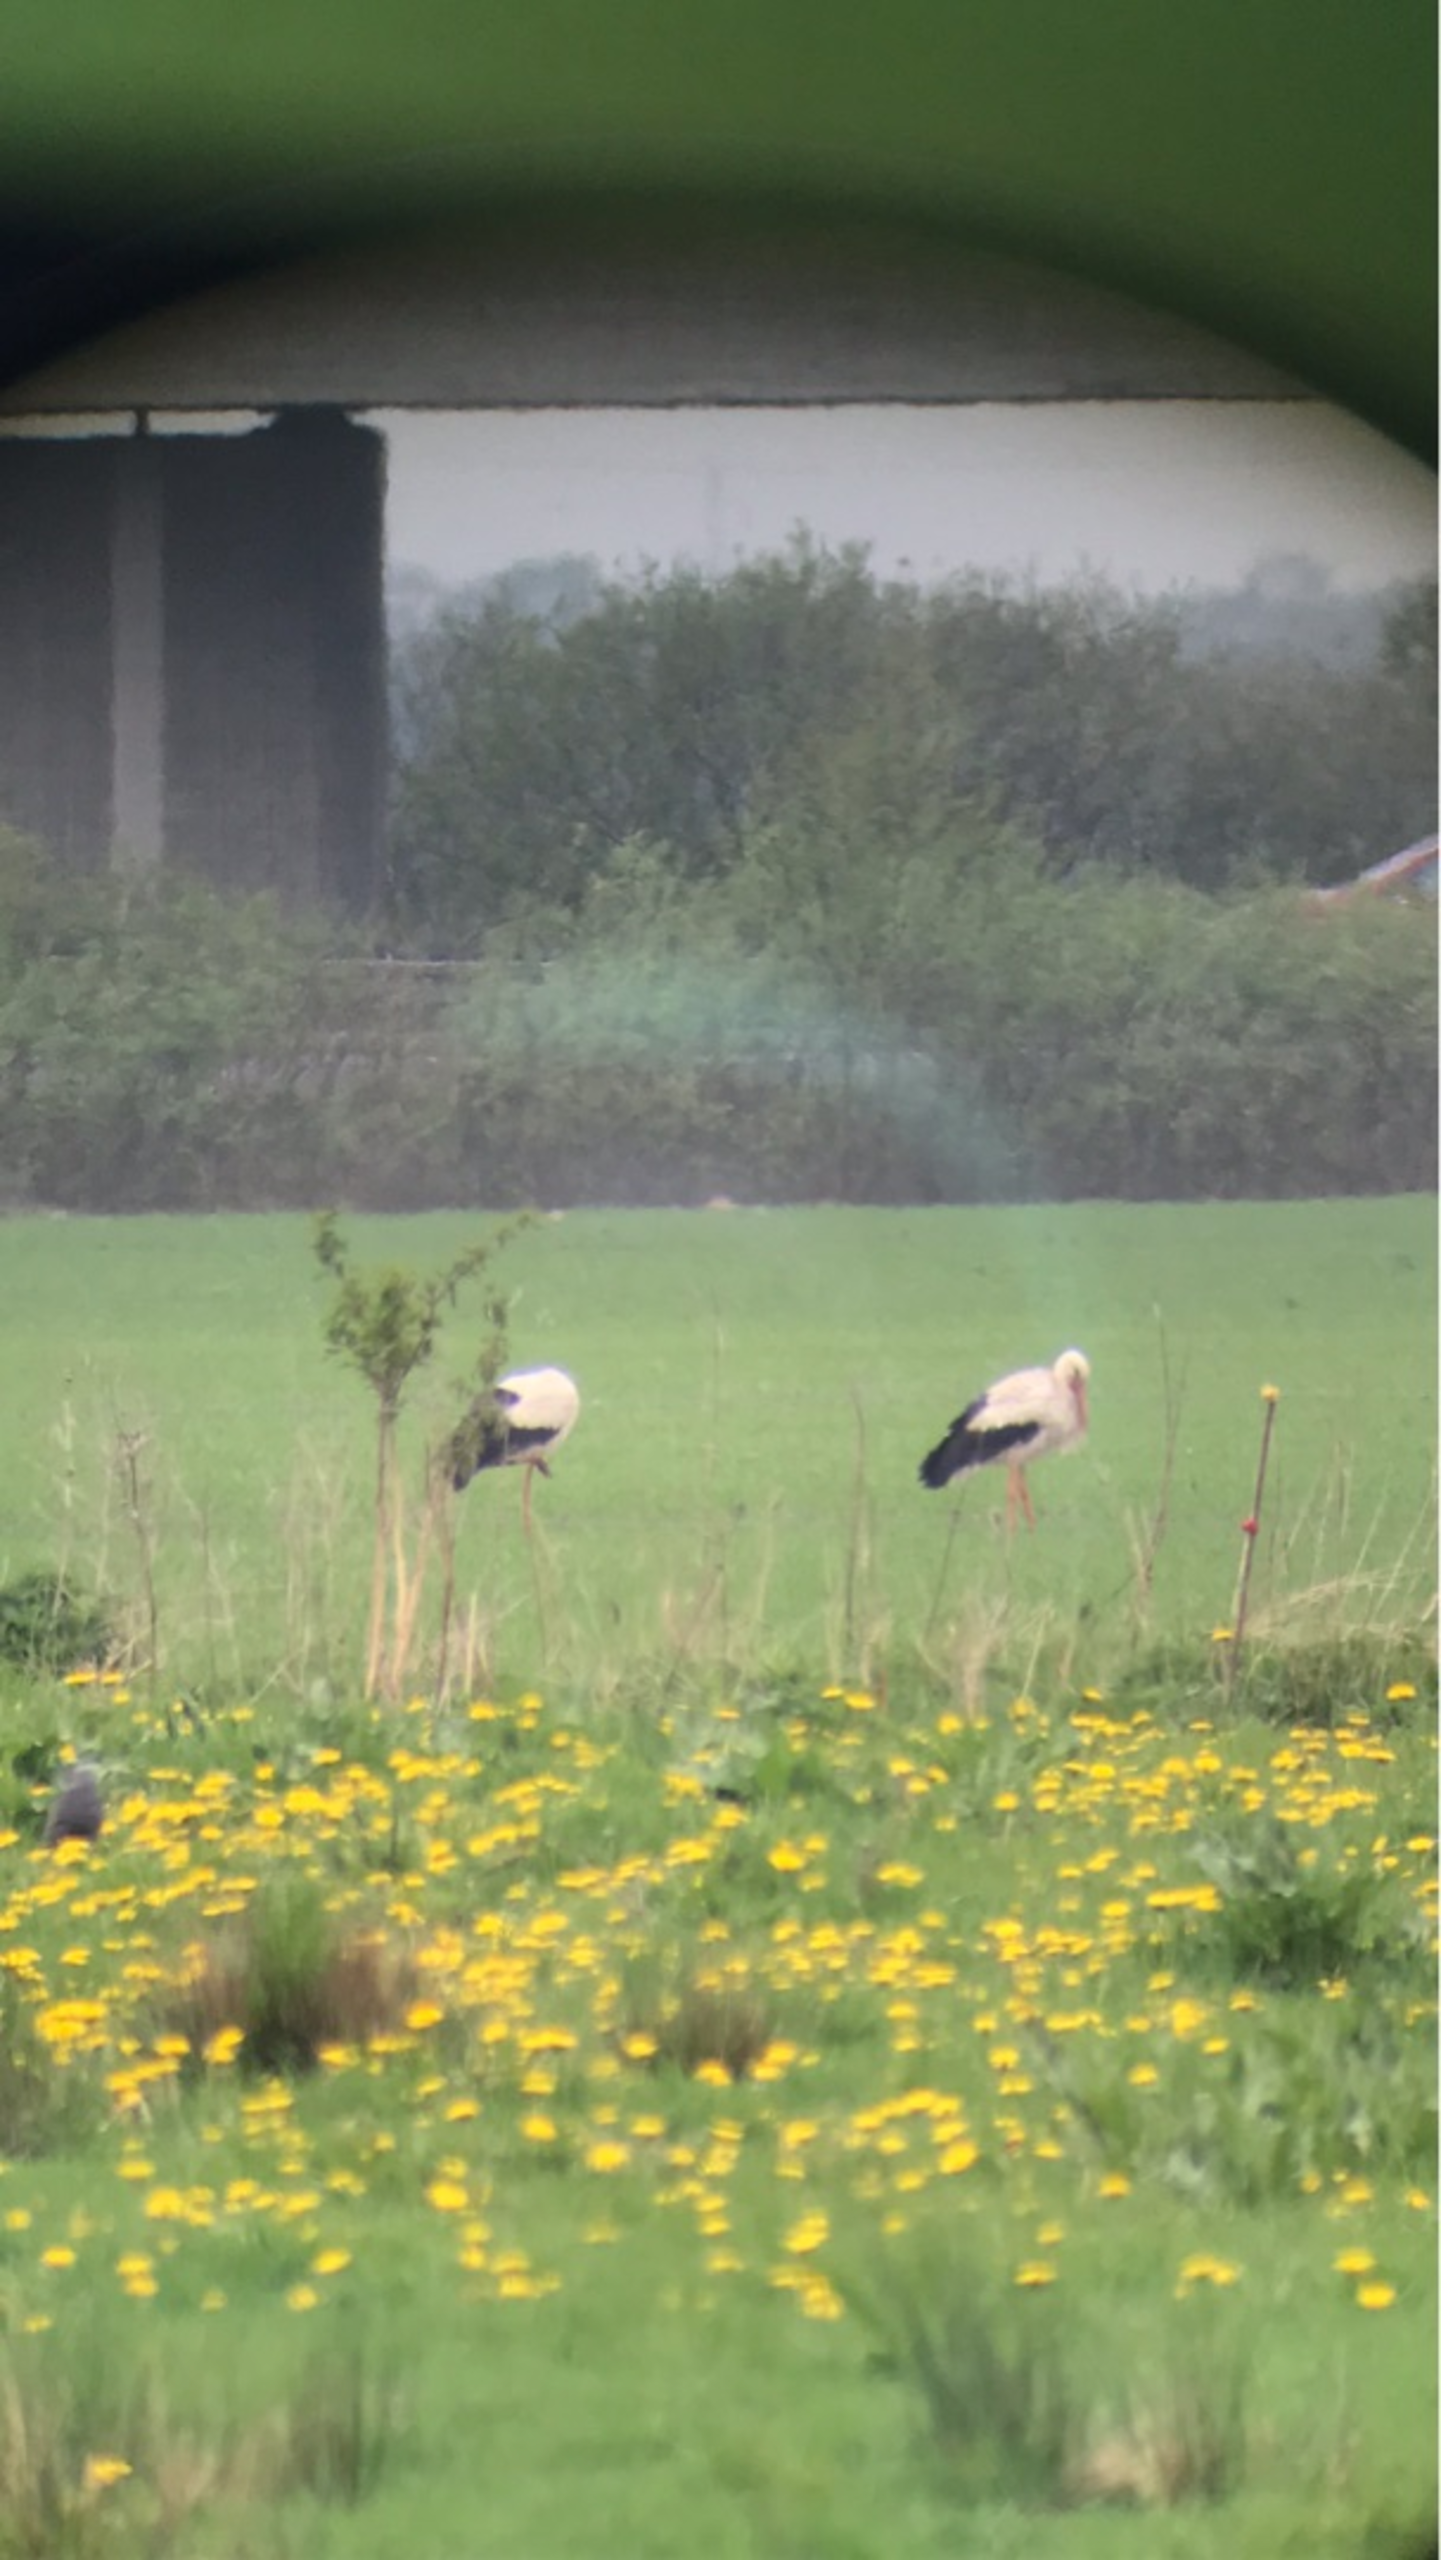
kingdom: Animalia
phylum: Chordata
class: Aves
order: Ciconiiformes
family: Ciconiidae
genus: Ciconia
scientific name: Ciconia ciconia
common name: Hvid stork
